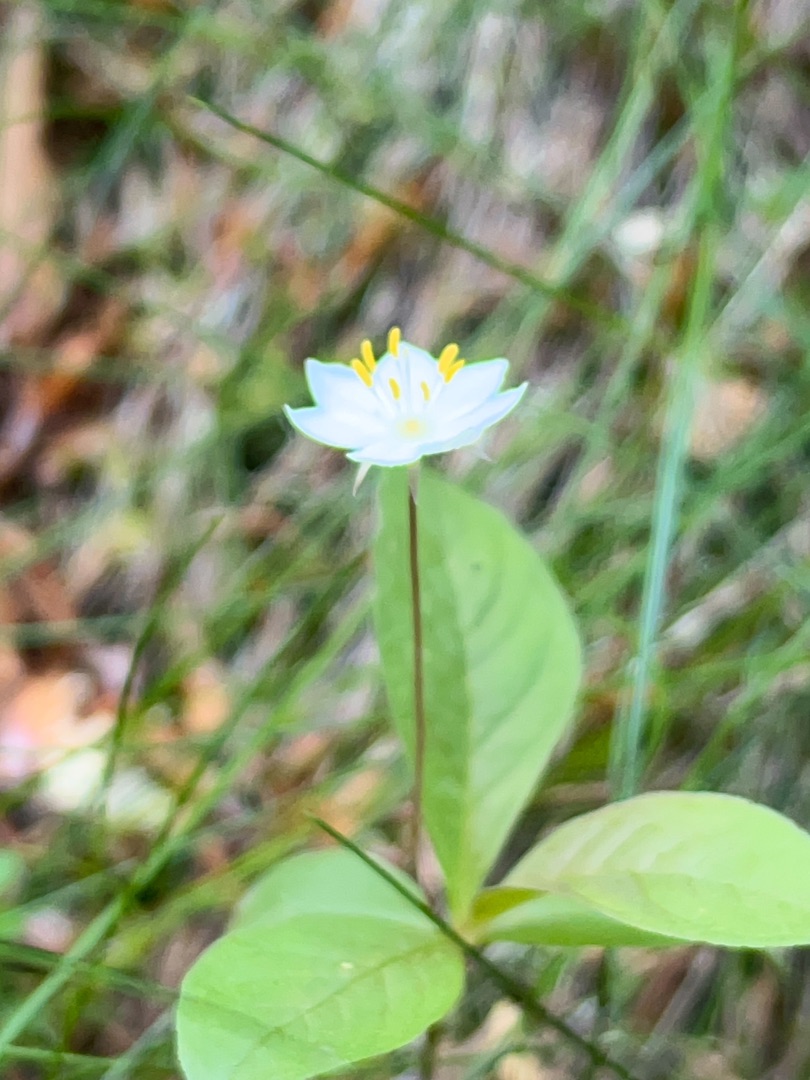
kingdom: Plantae
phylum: Tracheophyta
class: Magnoliopsida
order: Ericales
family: Primulaceae
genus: Lysimachia
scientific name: Lysimachia europaea
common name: Skovstjerne
